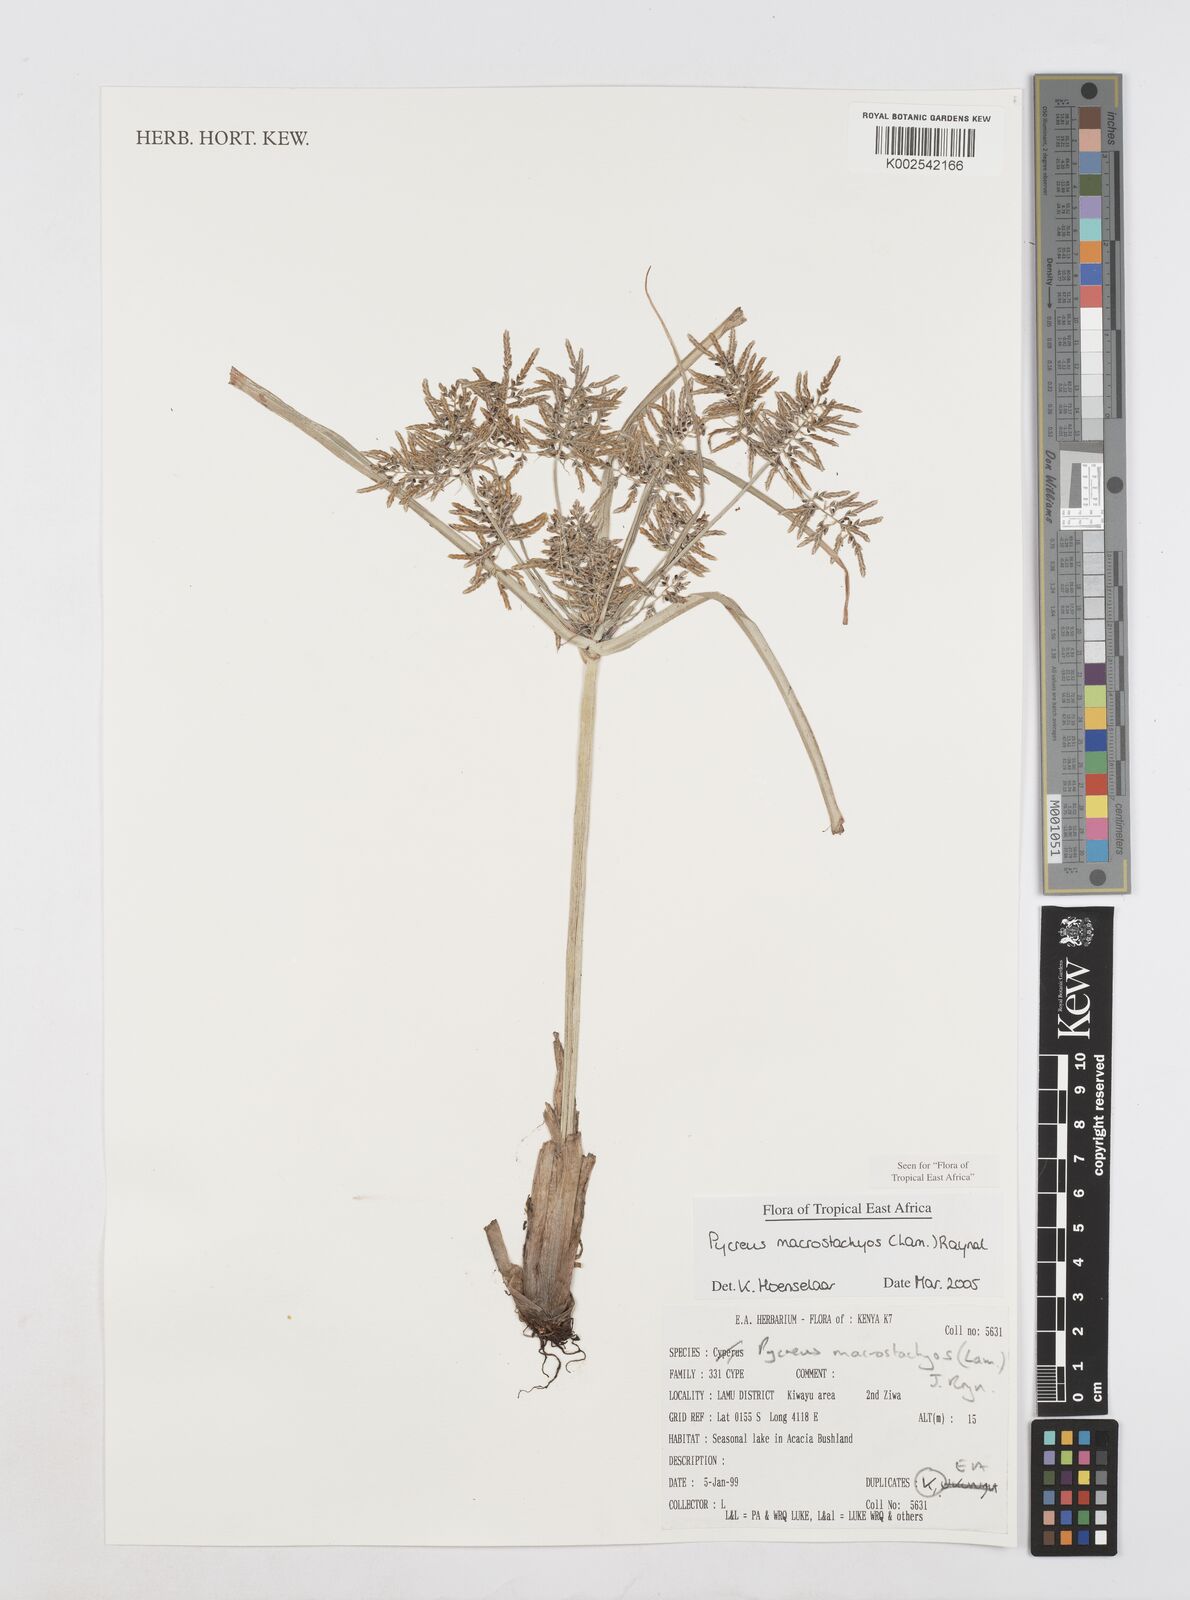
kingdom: Plantae
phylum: Tracheophyta
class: Liliopsida
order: Poales
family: Cyperaceae
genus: Cyperus
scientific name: Cyperus macrostachyos
